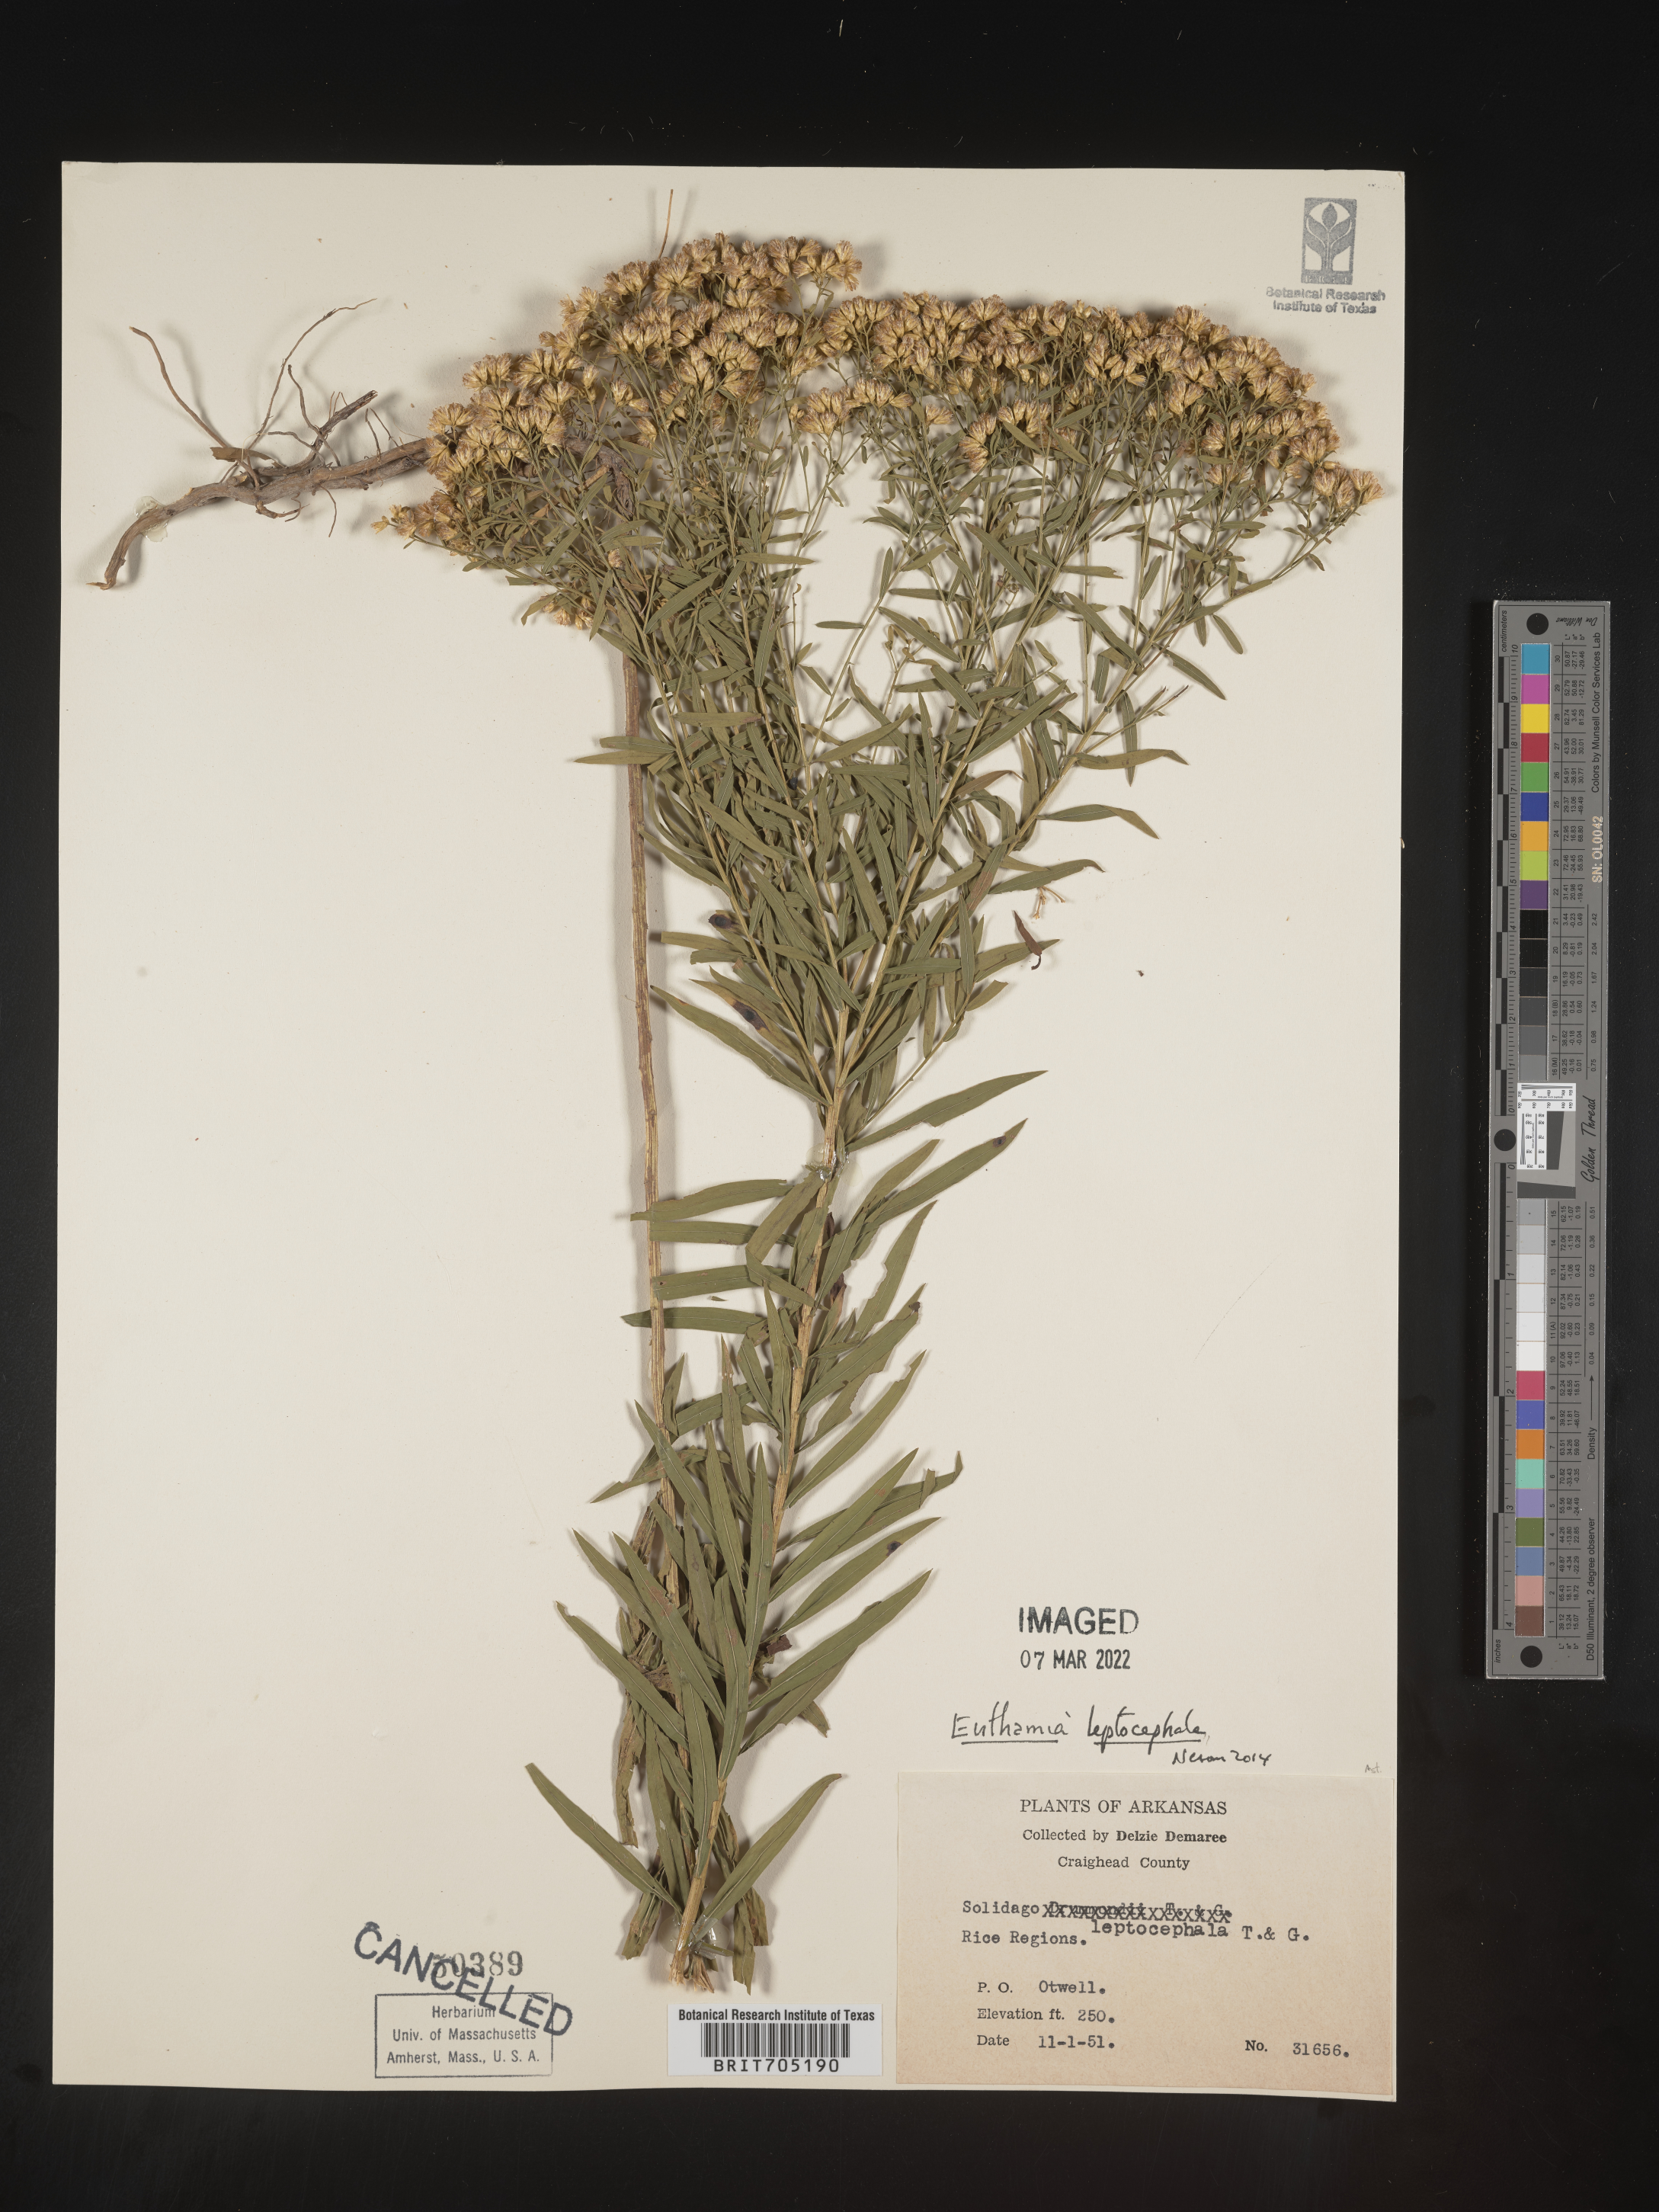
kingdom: Plantae
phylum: Tracheophyta
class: Magnoliopsida
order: Asterales
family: Asteraceae
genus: Euthamia
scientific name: Euthamia leptocephala
